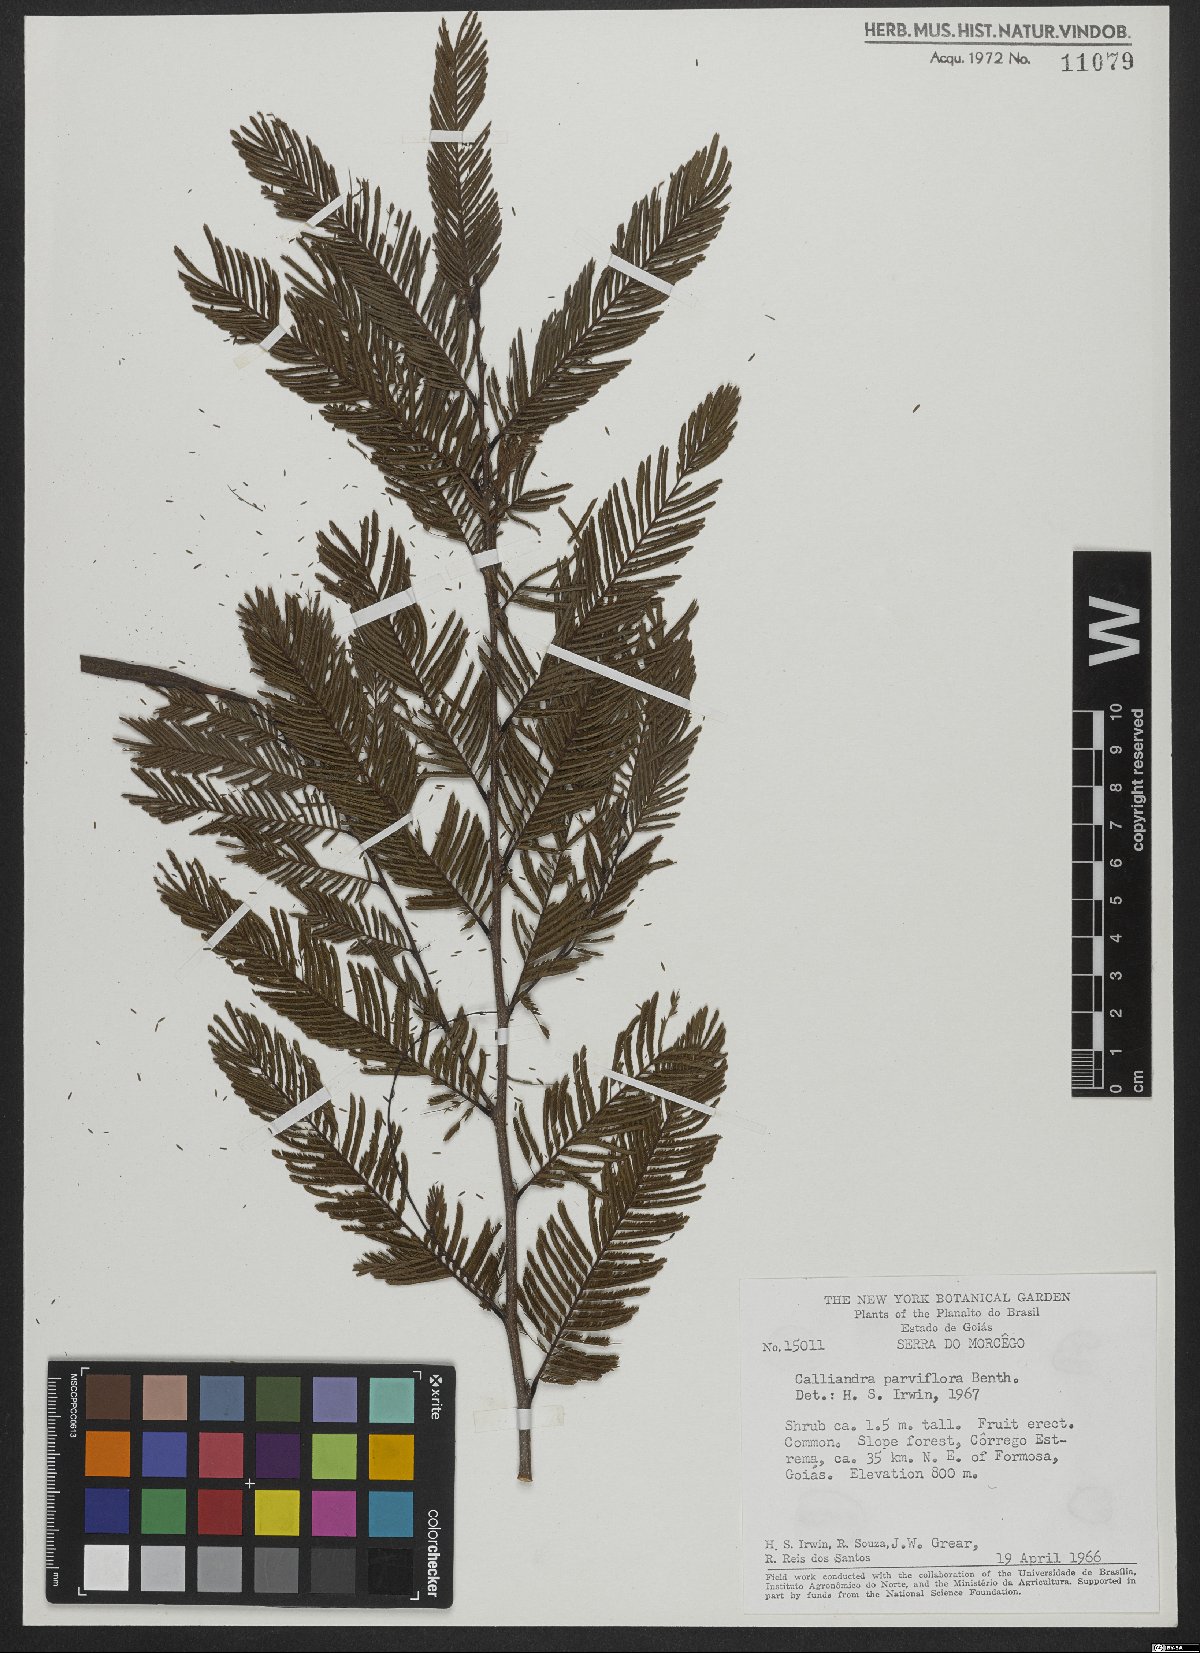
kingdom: Plantae
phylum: Tracheophyta
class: Magnoliopsida
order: Fabales
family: Fabaceae
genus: Calliandra
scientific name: Calliandra parviflora
